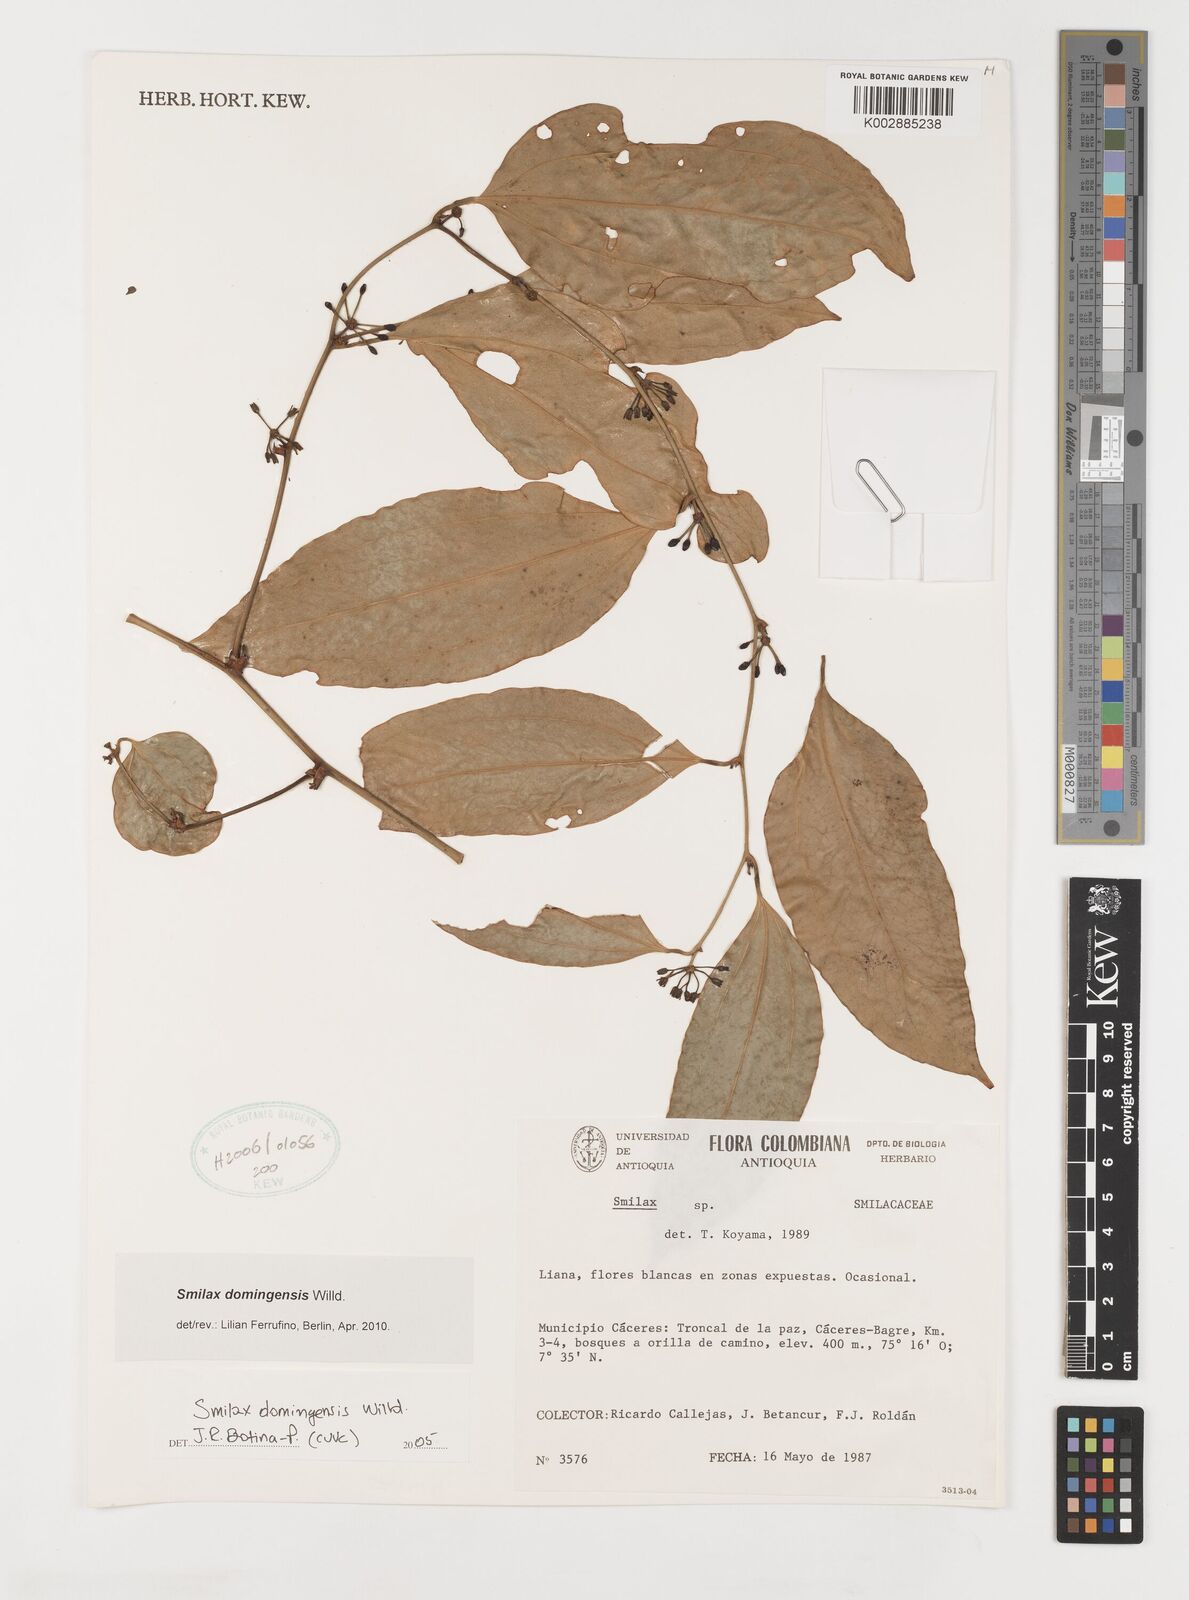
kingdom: Plantae
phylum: Tracheophyta
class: Liliopsida
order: Liliales
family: Smilacaceae
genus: Smilax
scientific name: Smilax domingensis
